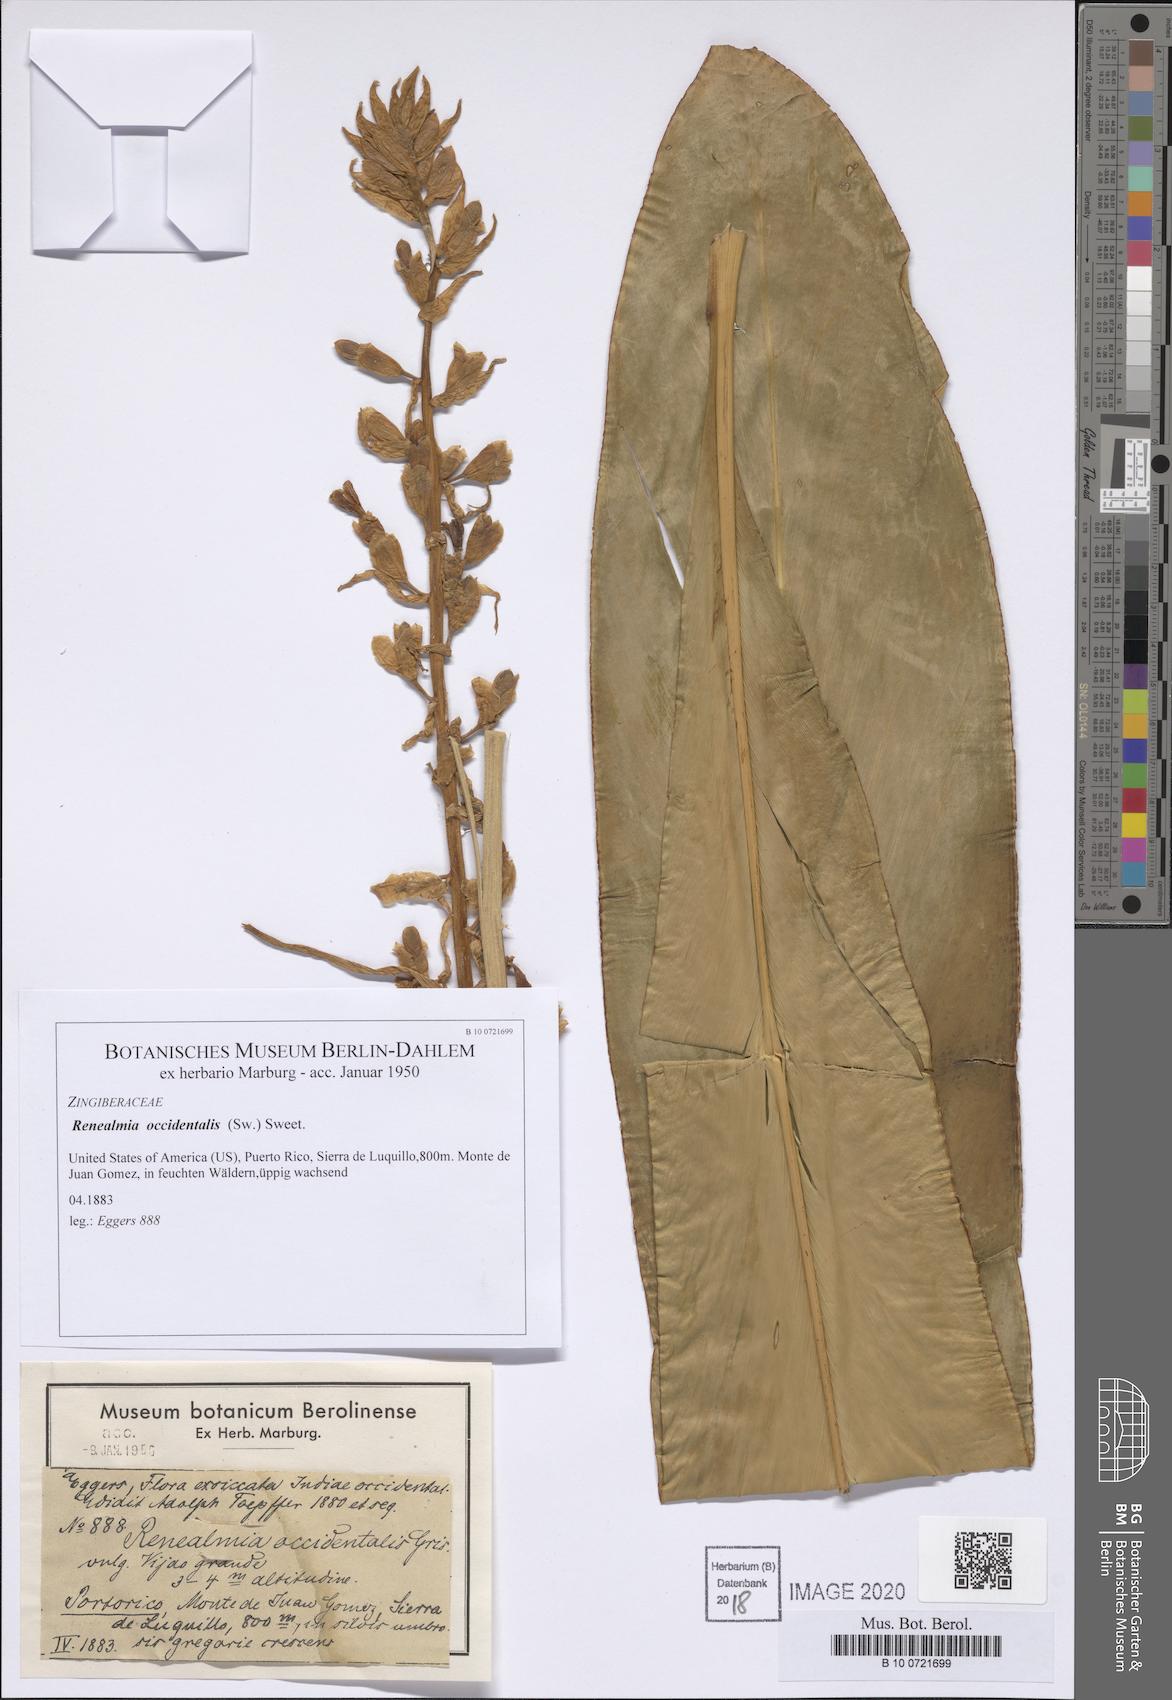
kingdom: Plantae
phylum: Tracheophyta
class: Liliopsida
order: Zingiberales
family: Zingiberaceae
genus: Renealmia
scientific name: Renealmia aromatica
